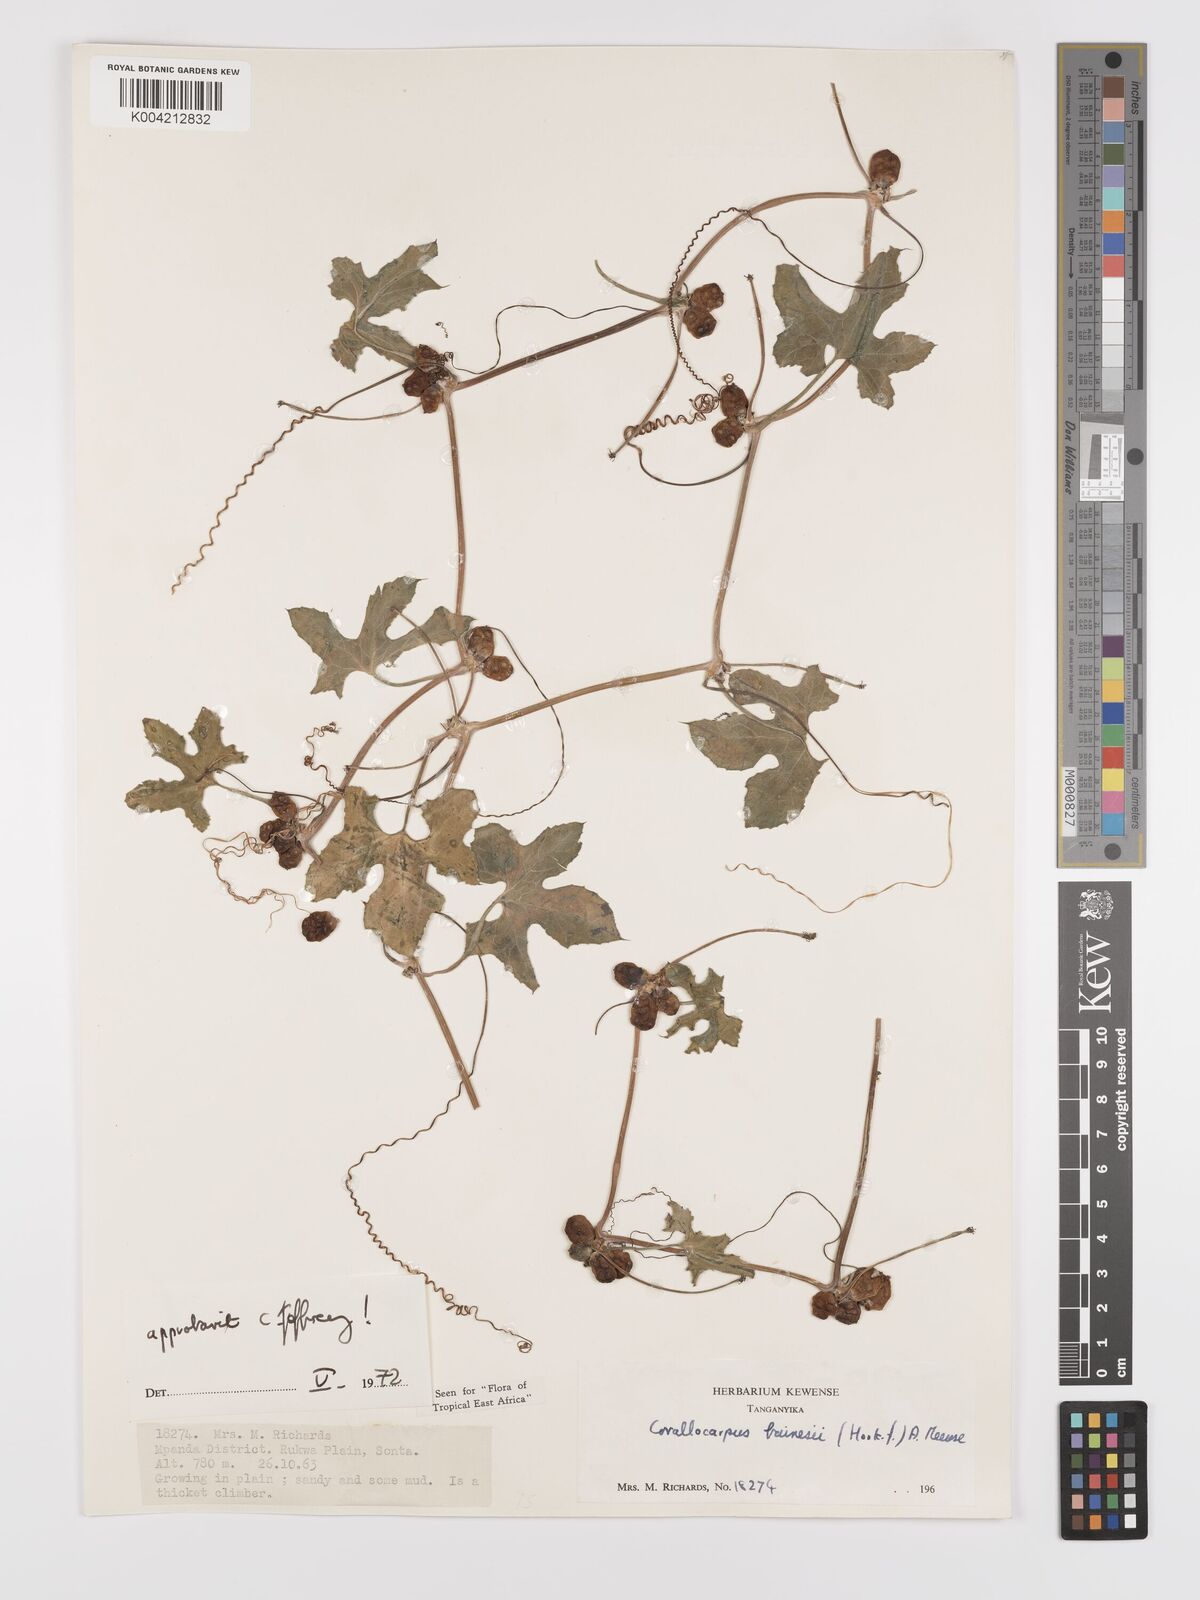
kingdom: Plantae
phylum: Tracheophyta
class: Magnoliopsida
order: Cucurbitales
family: Cucurbitaceae
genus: Corallocarpus
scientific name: Corallocarpus bainesii
